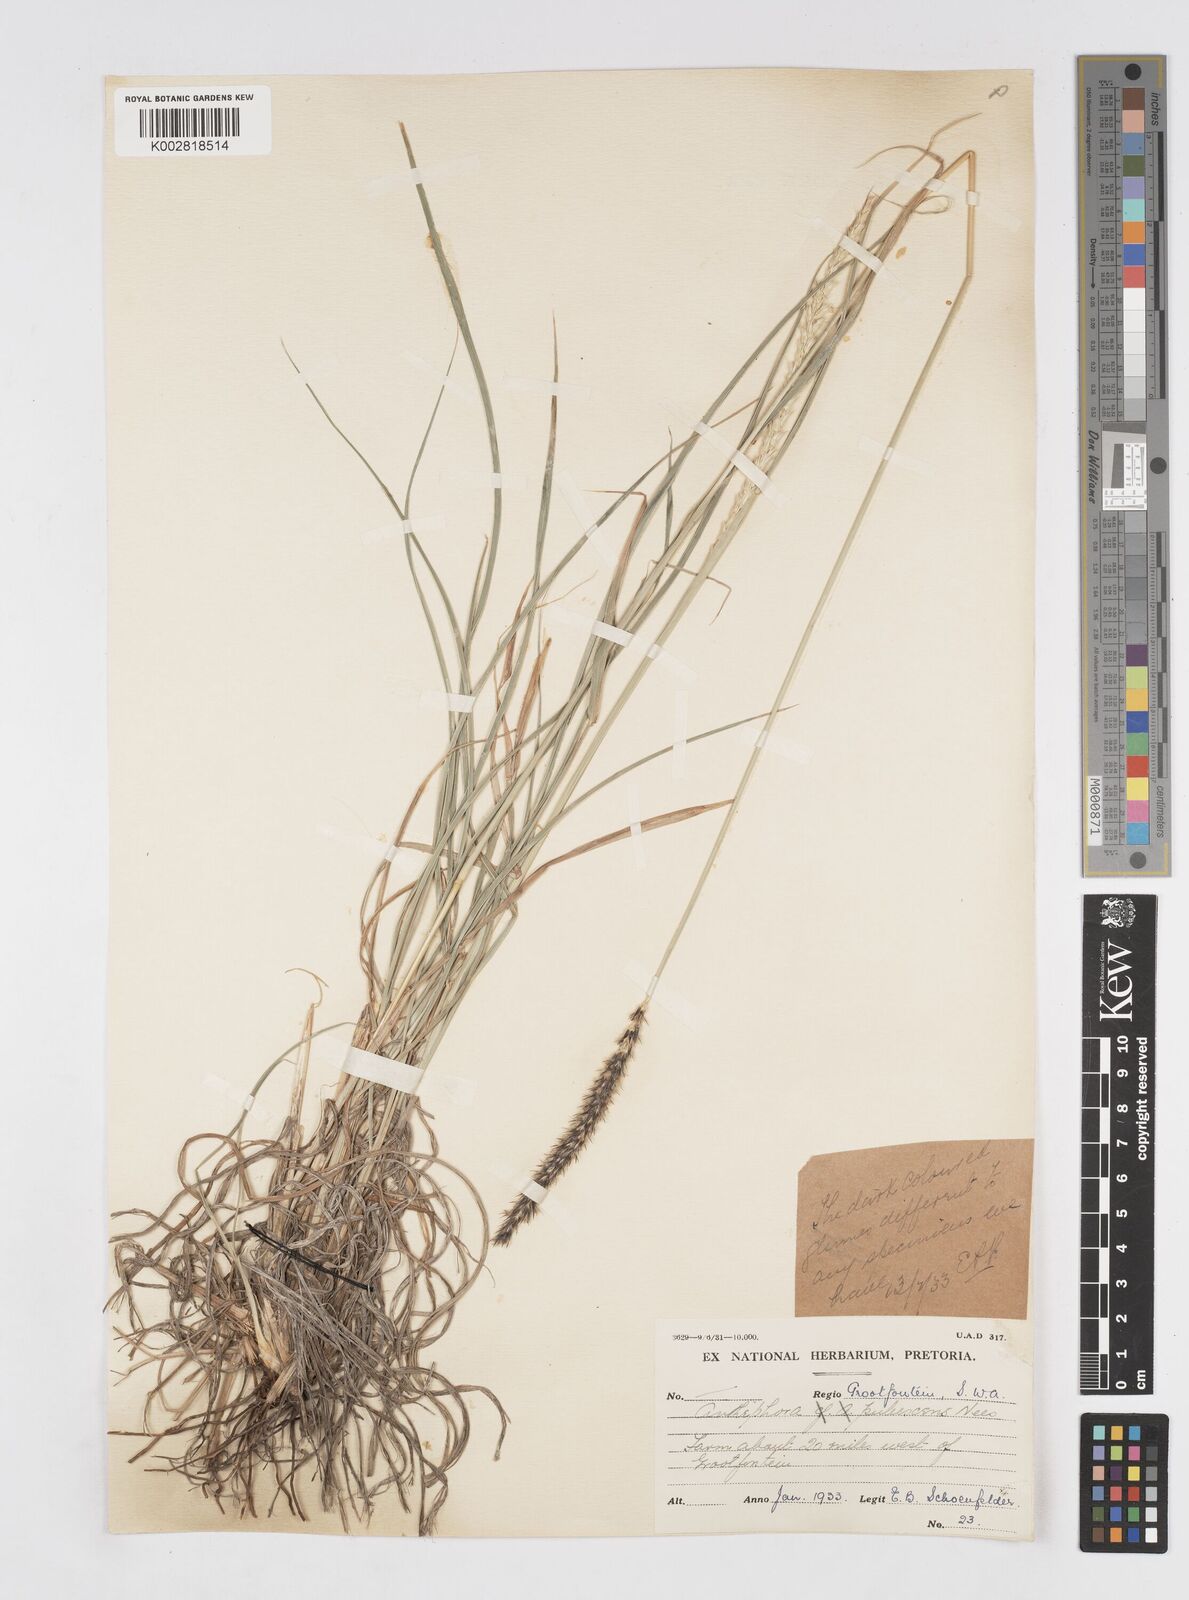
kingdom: Plantae
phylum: Tracheophyta
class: Liliopsida
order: Poales
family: Poaceae
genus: Anthephora
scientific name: Anthephora pubescens
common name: Wool grass
